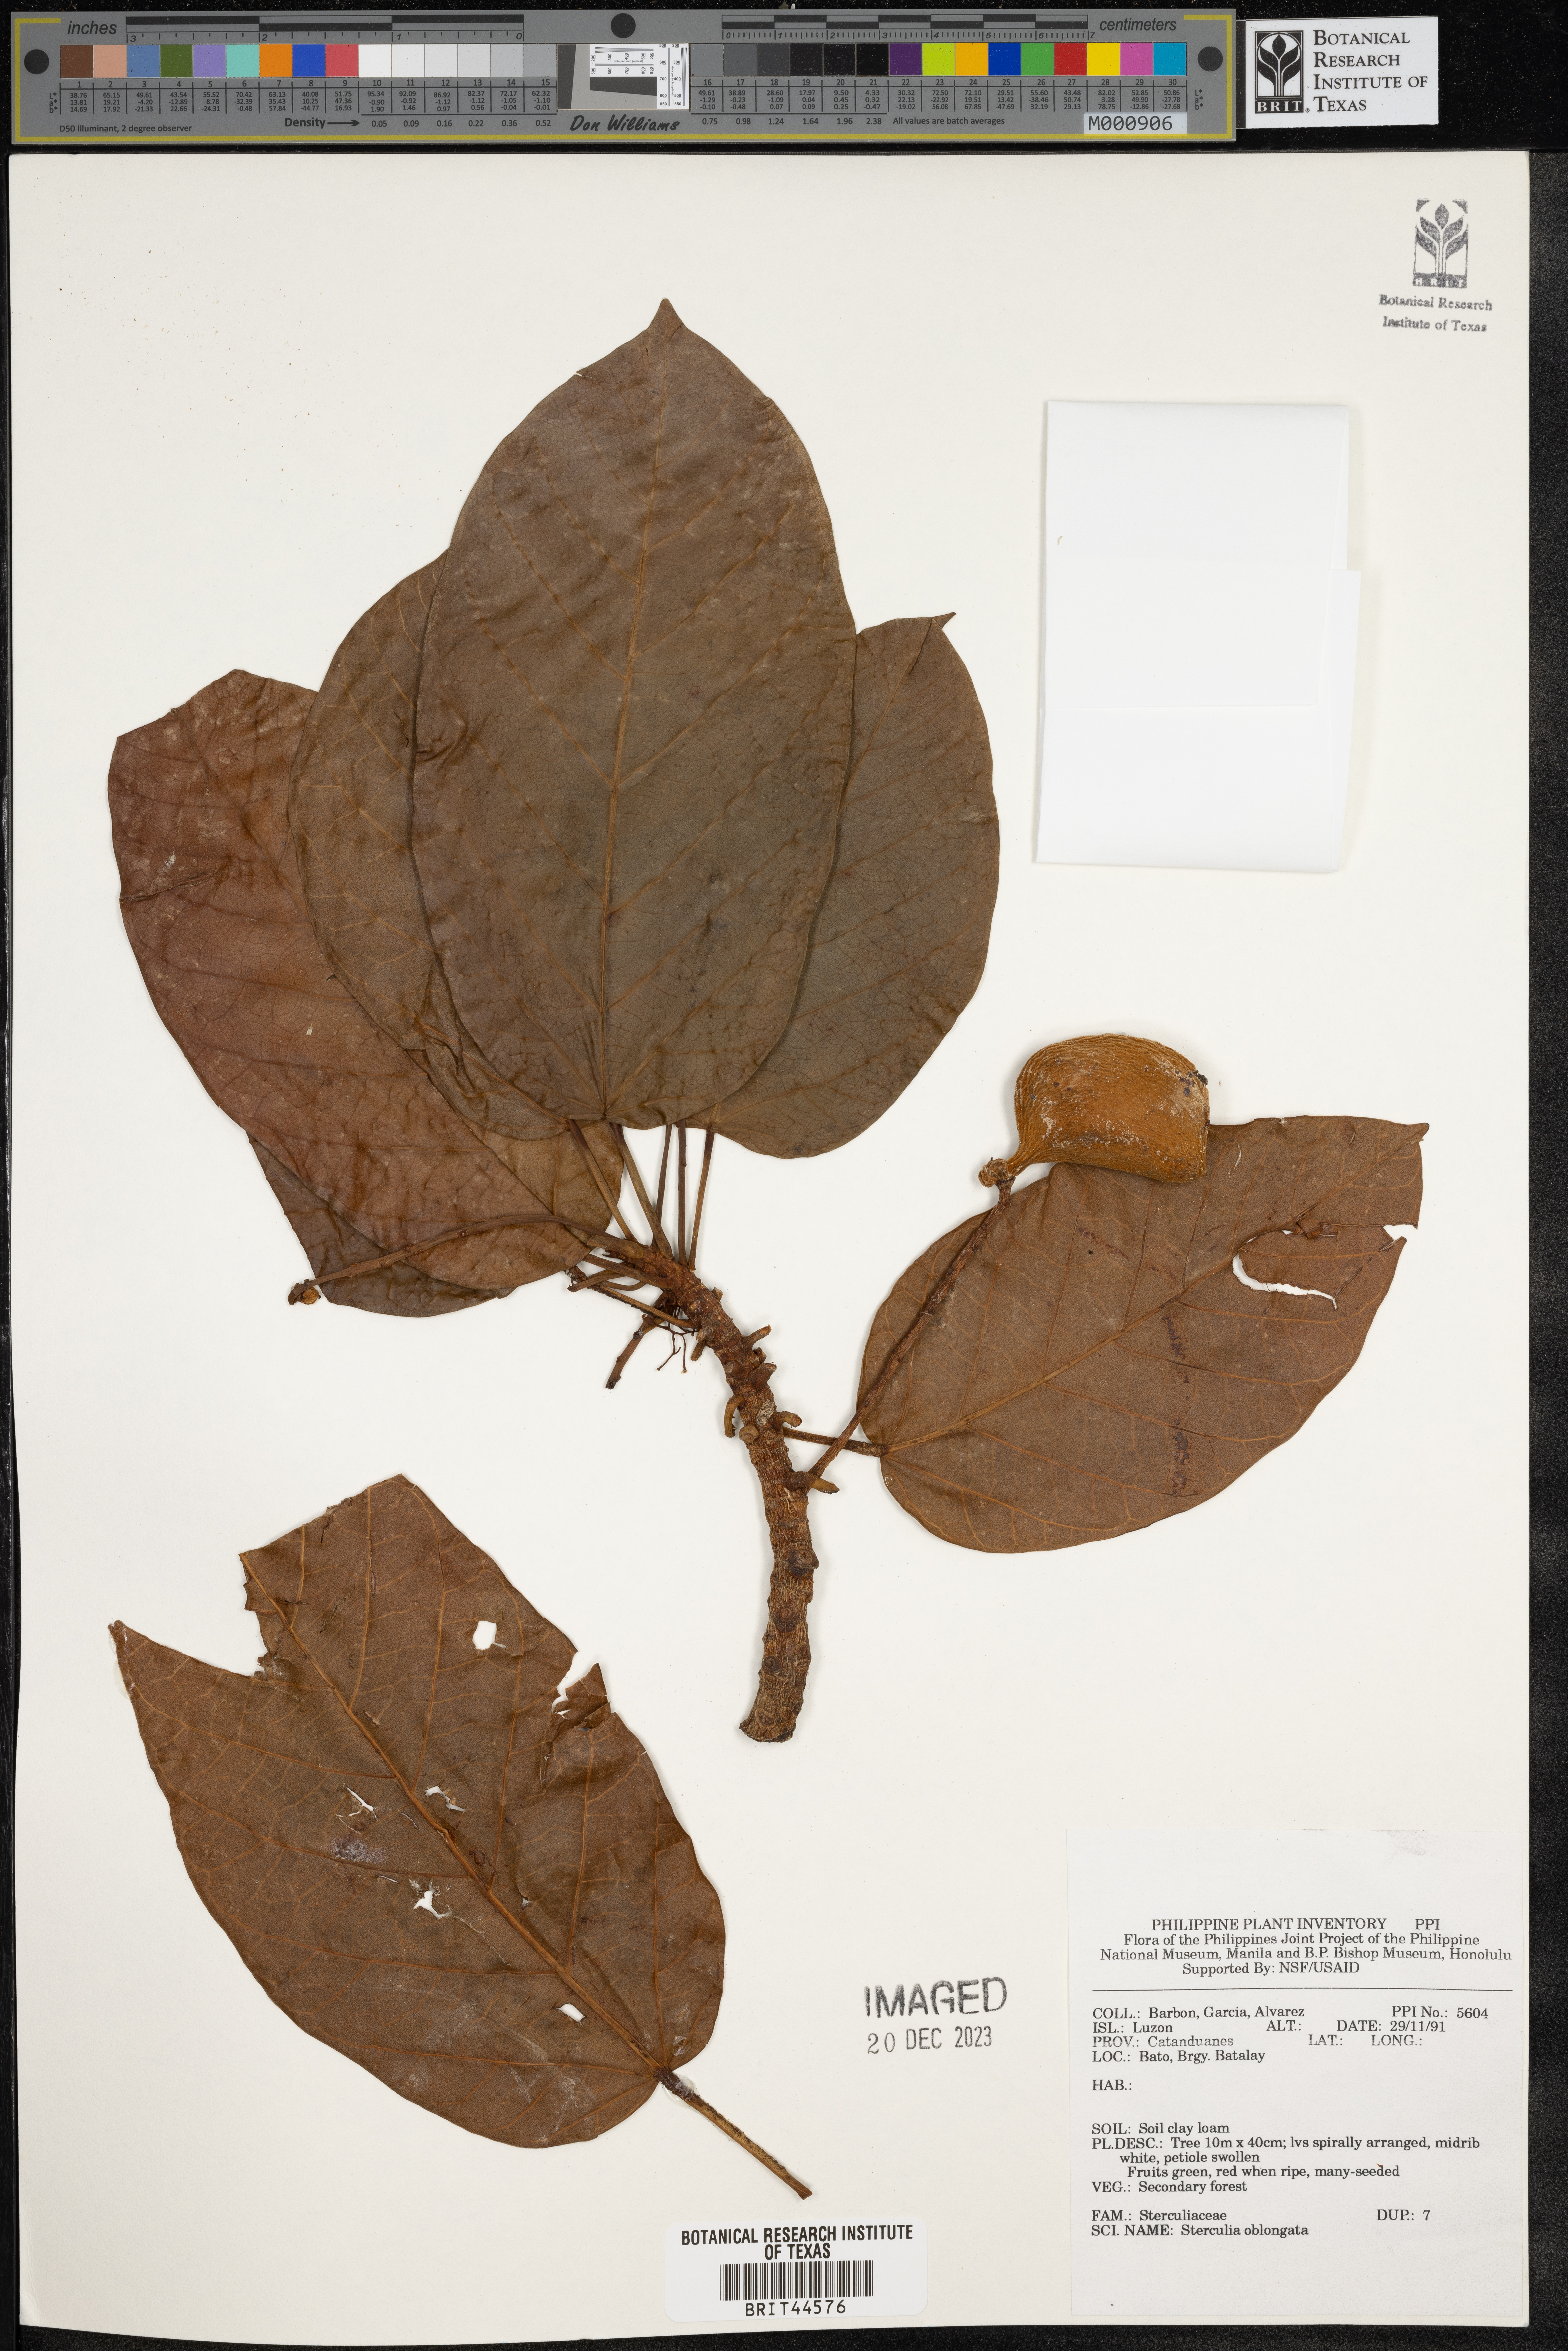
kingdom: Plantae
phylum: Tracheophyta
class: Magnoliopsida
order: Malvales
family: Malvaceae
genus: Sterculia
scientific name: Sterculia oblongata
